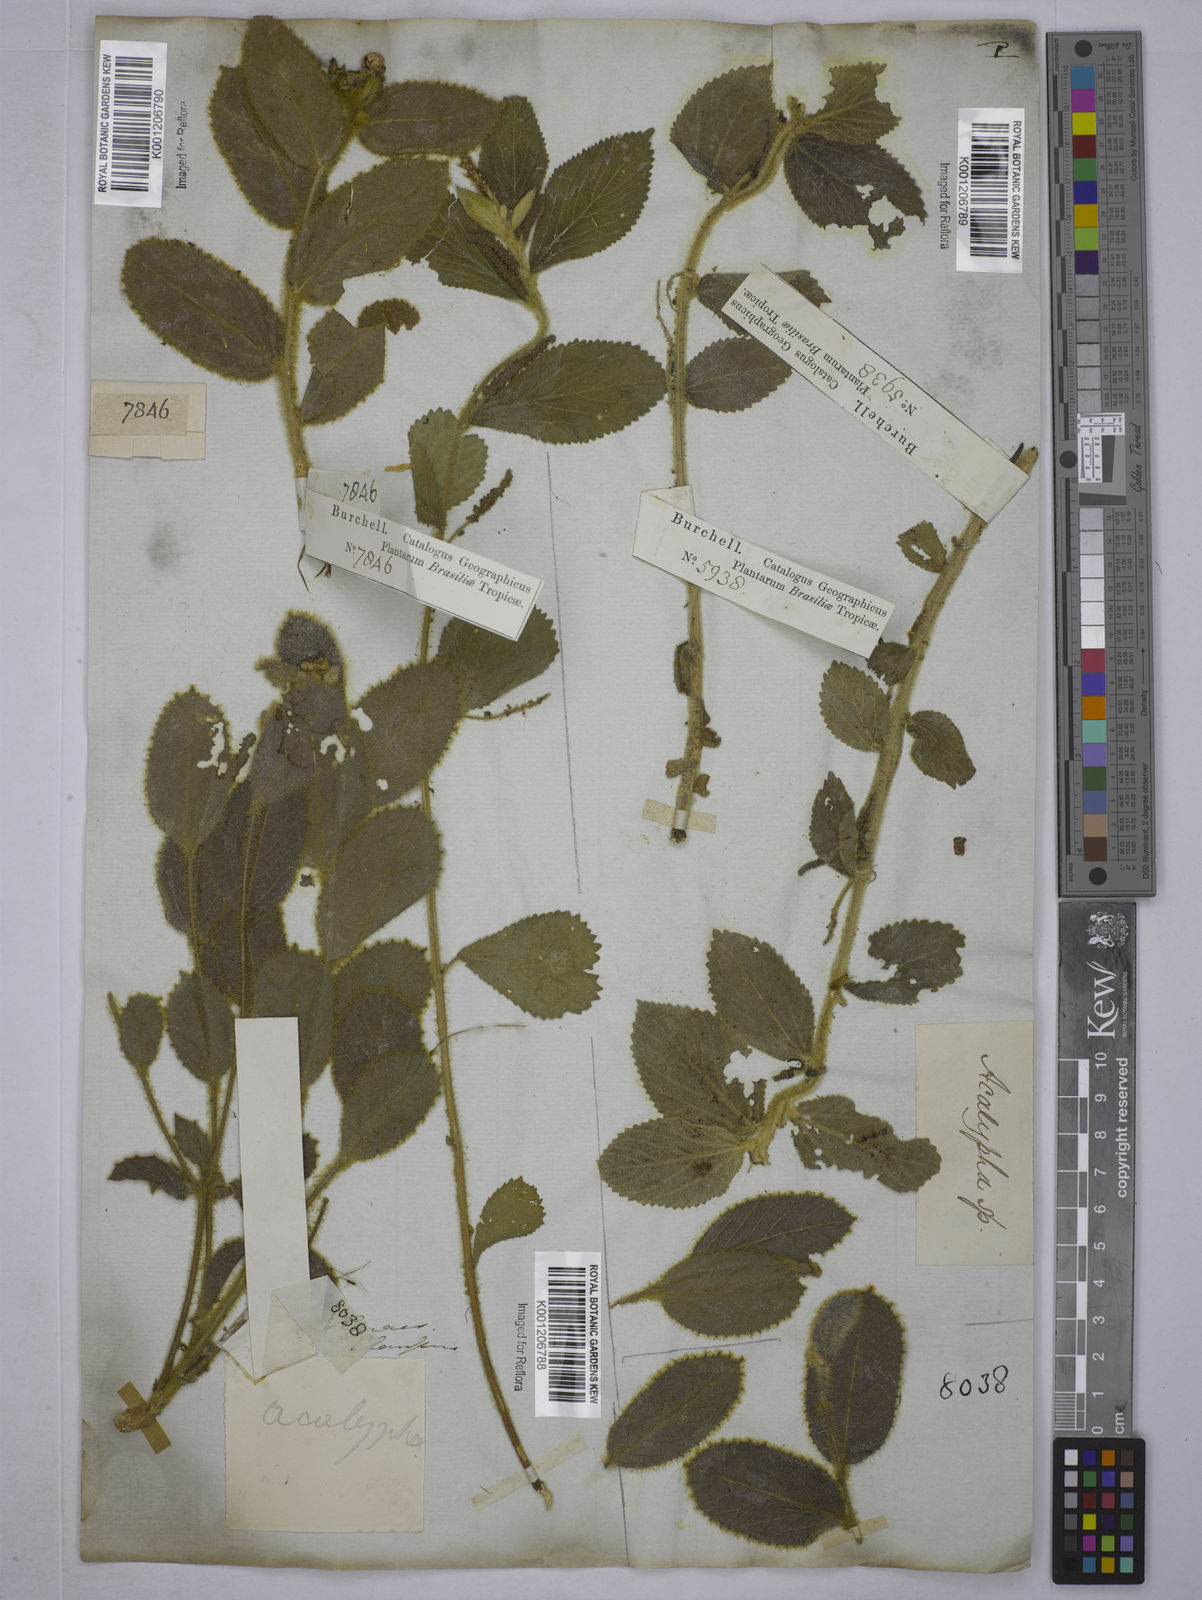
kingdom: Plantae
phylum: Tracheophyta
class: Magnoliopsida
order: Malpighiales
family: Euphorbiaceae
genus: Acalypha
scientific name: Acalypha
